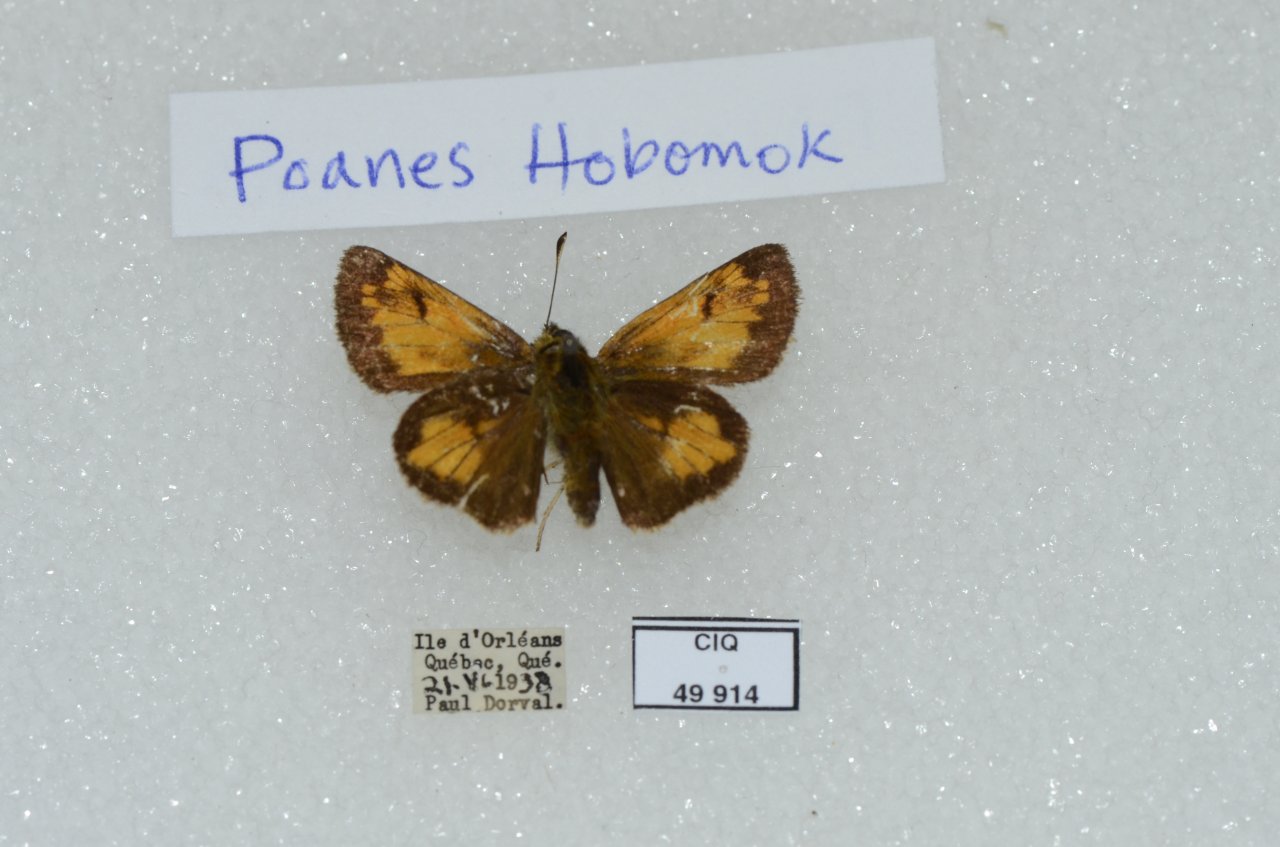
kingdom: Animalia
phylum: Arthropoda
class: Insecta
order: Lepidoptera
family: Hesperiidae
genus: Lon
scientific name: Lon hobomok
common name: Hobomok Skipper
